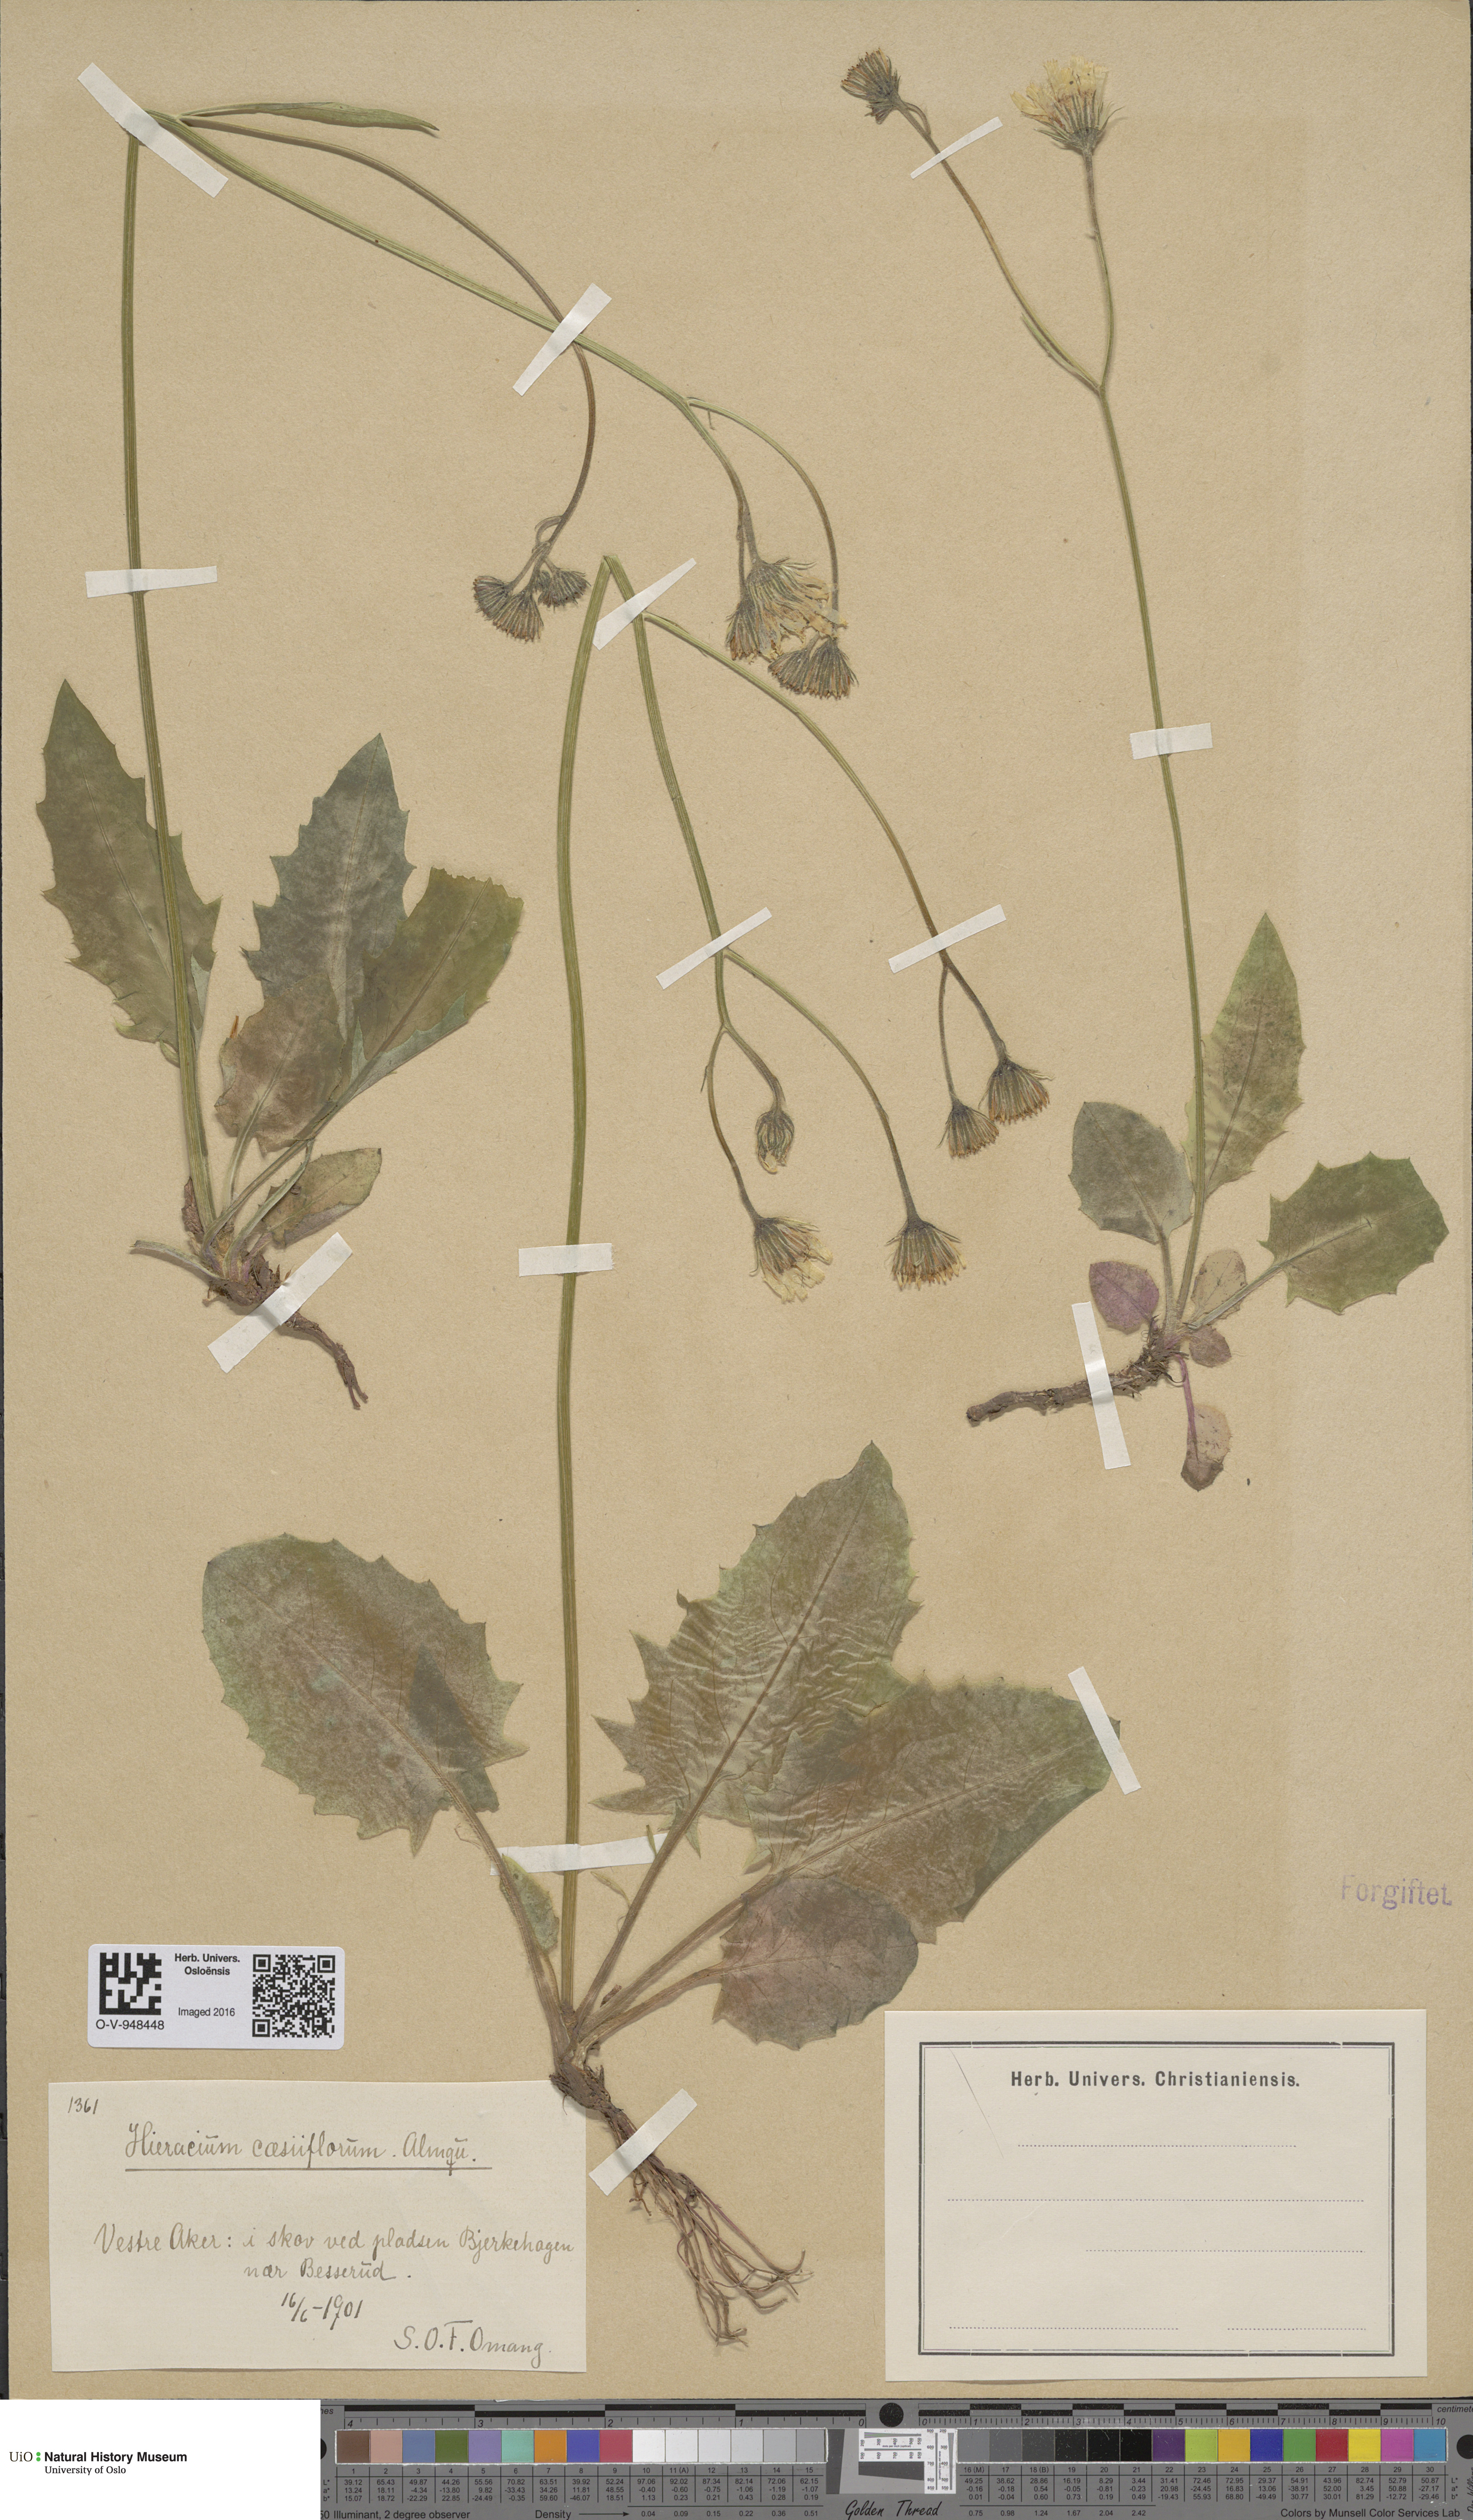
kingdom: Plantae
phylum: Tracheophyta
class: Magnoliopsida
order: Asterales
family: Asteraceae
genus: Hieracium
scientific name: Hieracium bifidum
